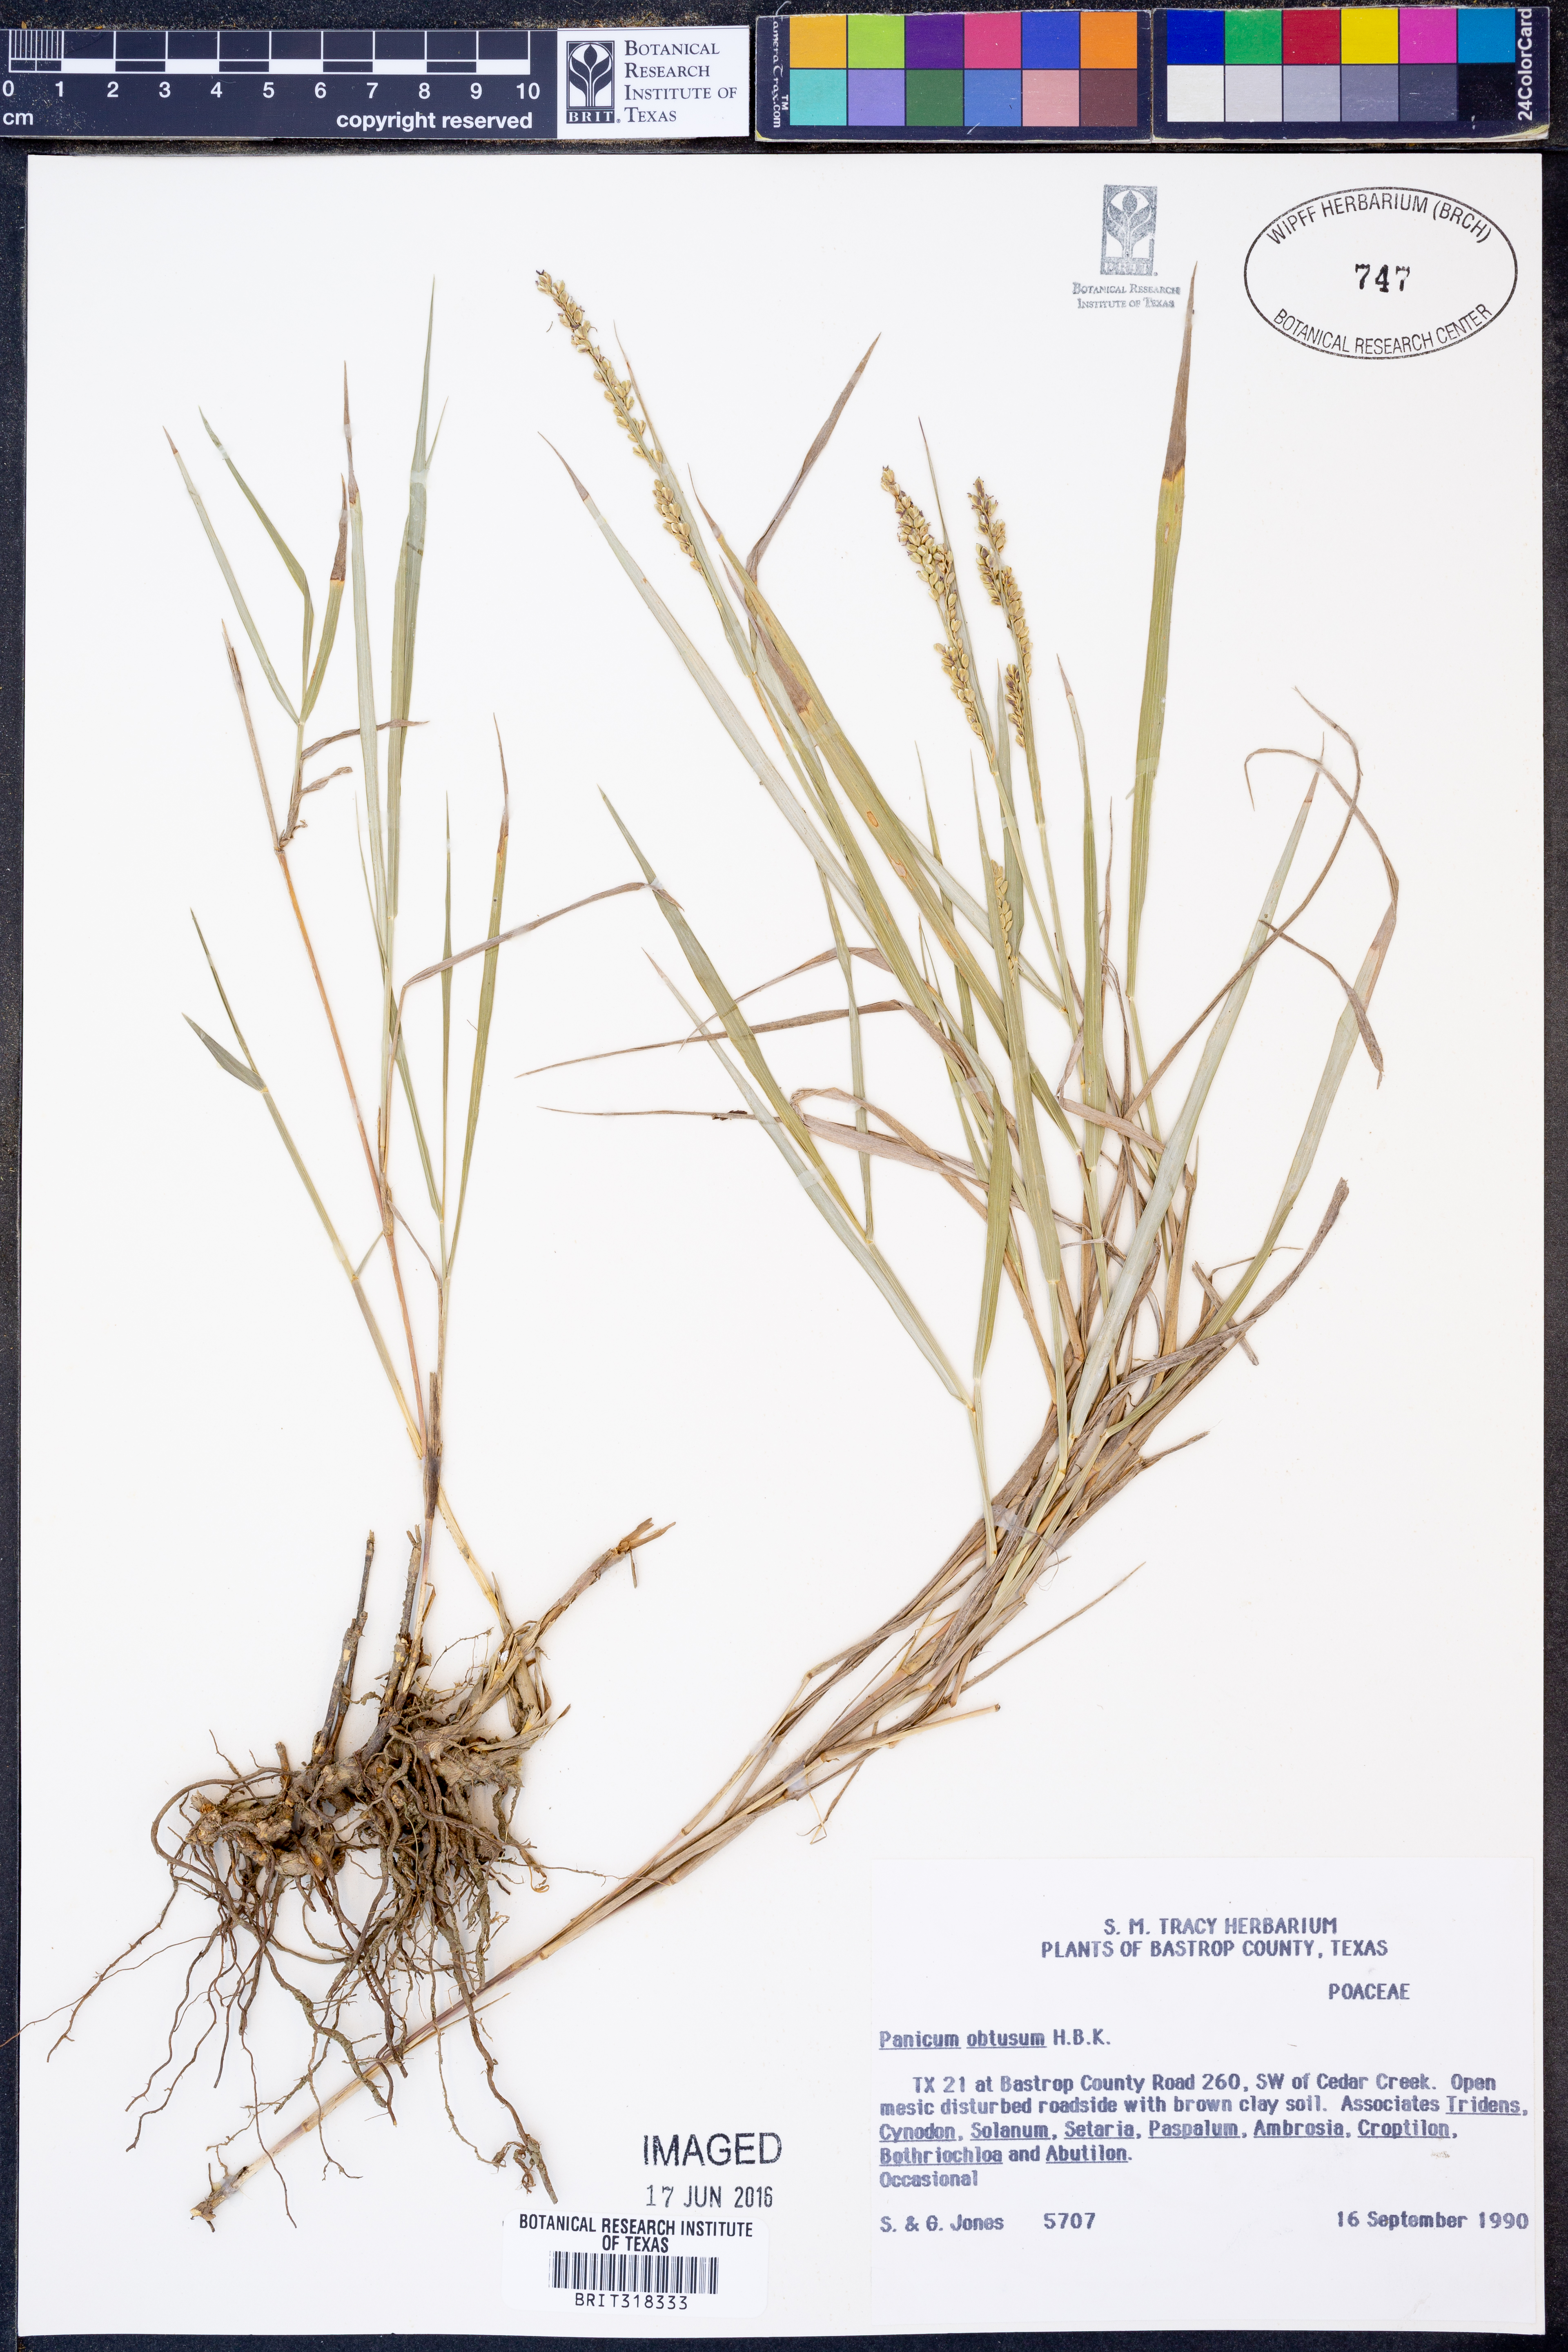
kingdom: Plantae
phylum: Tracheophyta
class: Liliopsida
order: Poales
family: Poaceae
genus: Hopia
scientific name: Hopia obtusa
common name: Vine-mesquite
